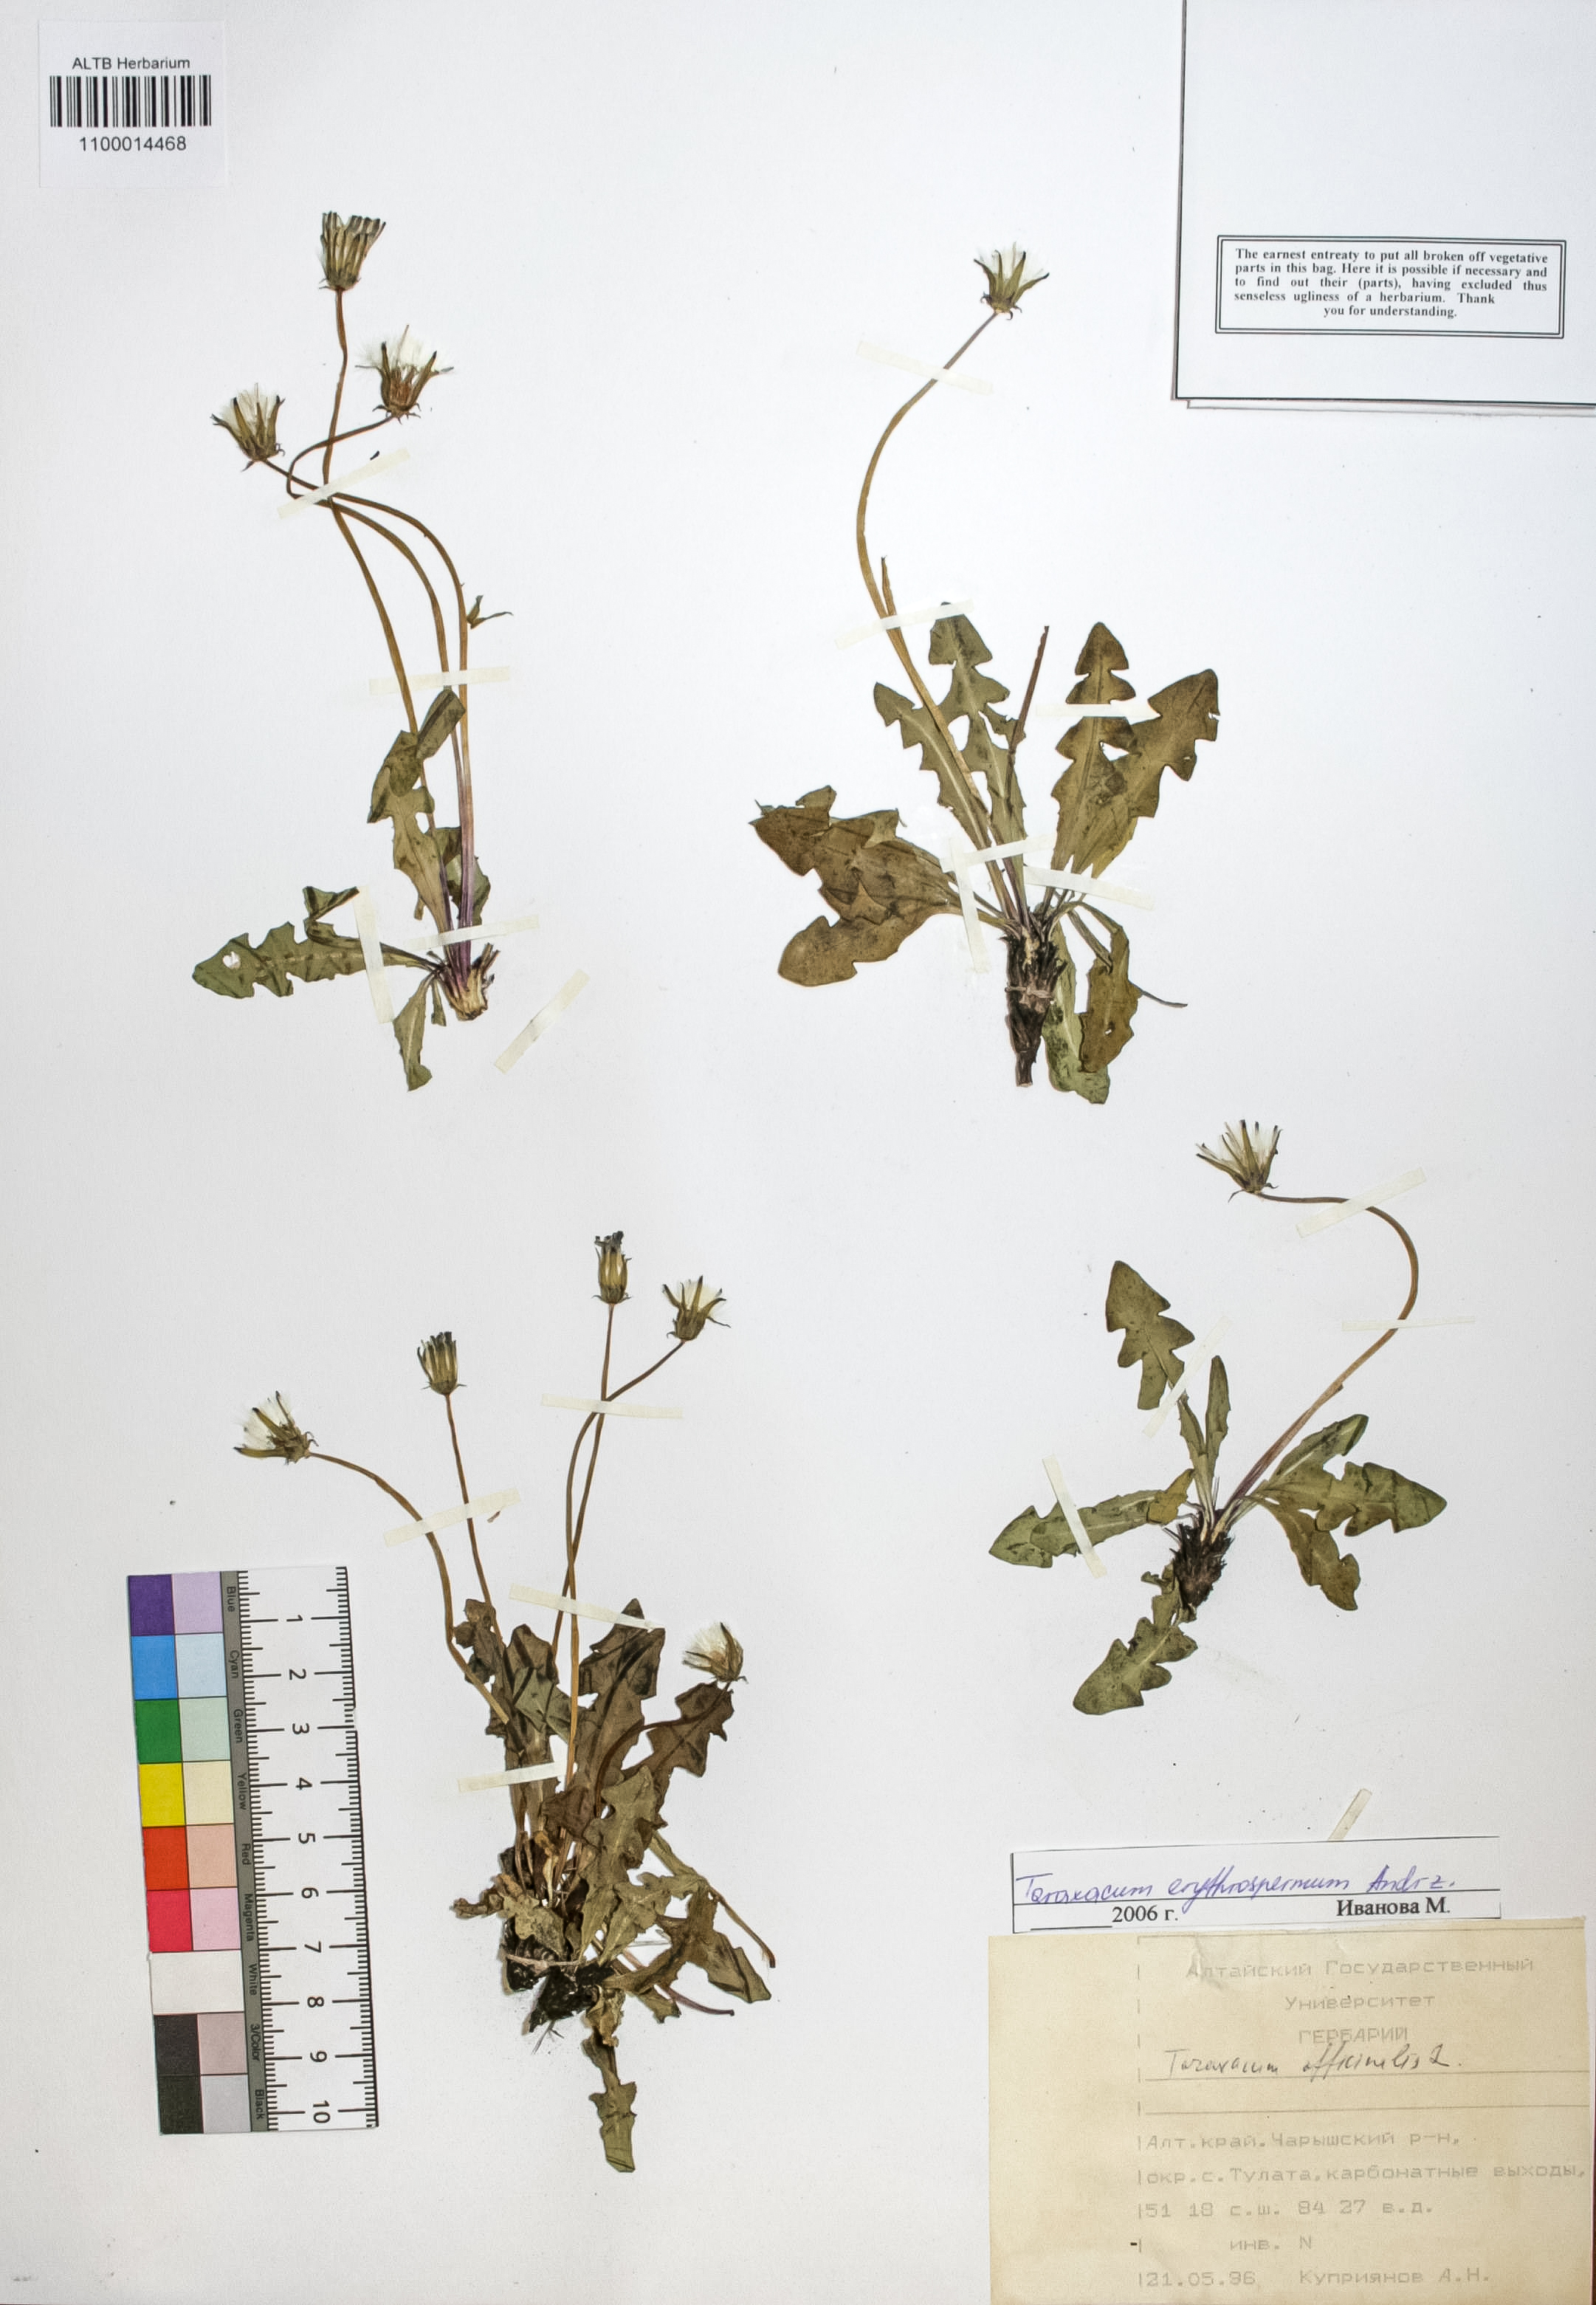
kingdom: Plantae
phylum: Tracheophyta
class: Magnoliopsida
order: Asterales
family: Asteraceae
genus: Taraxacum
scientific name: Taraxacum erythrospermum
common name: Rock dandelion
